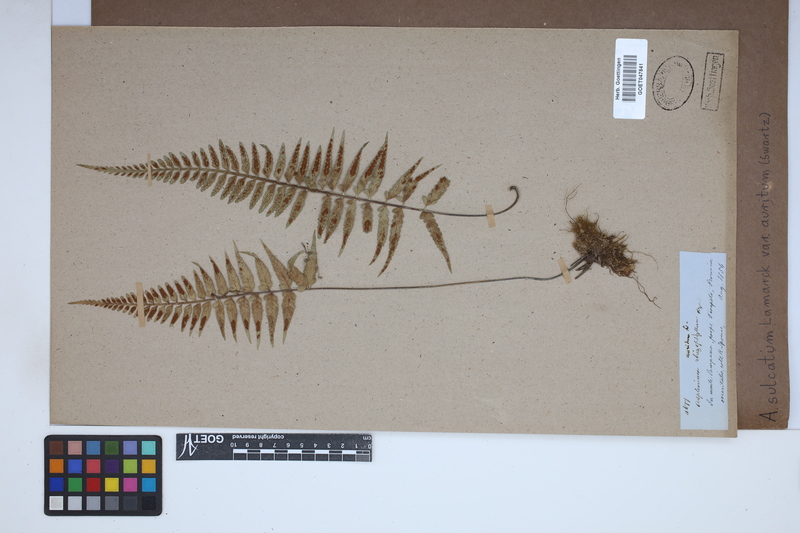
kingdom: Plantae
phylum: Tracheophyta
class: Polypodiopsida
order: Polypodiales
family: Aspleniaceae
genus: Asplenium
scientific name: Asplenium auritum
